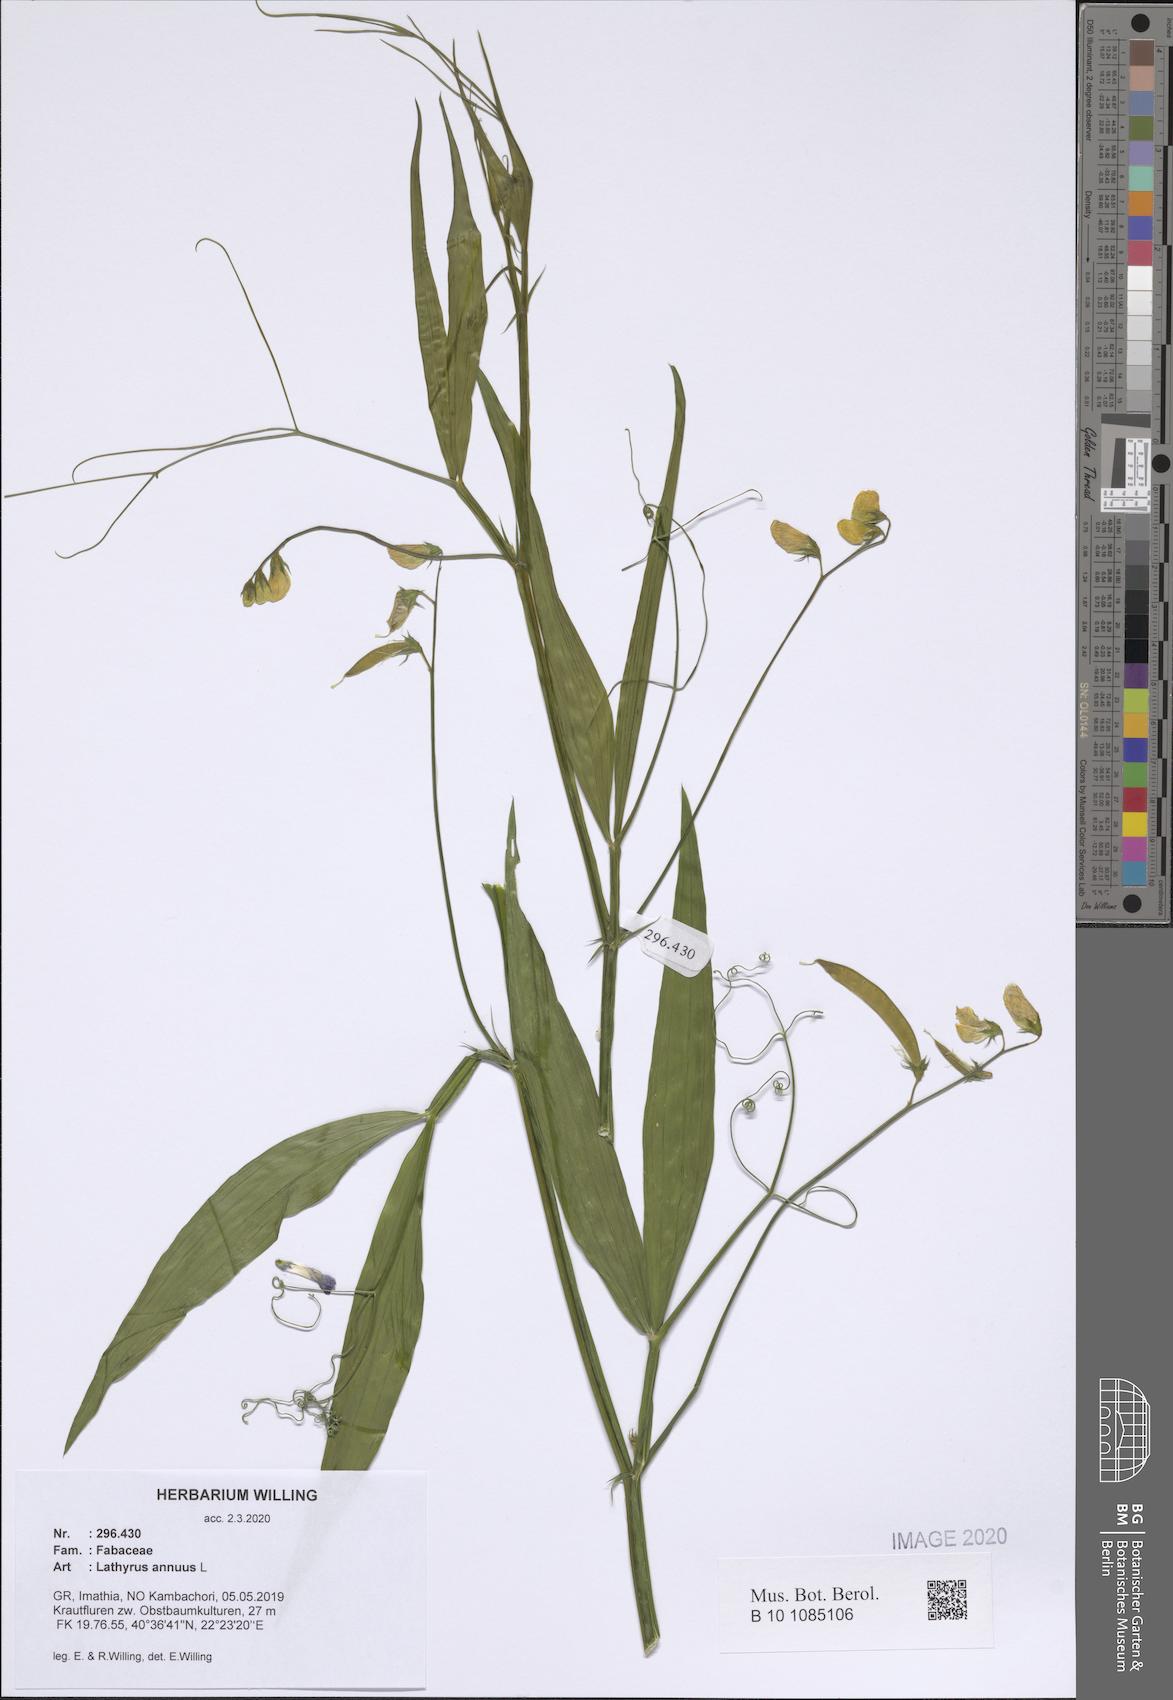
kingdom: Plantae
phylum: Tracheophyta
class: Magnoliopsida
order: Fabales
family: Fabaceae
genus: Lathyrus
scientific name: Lathyrus annuus
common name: Fodder pea
